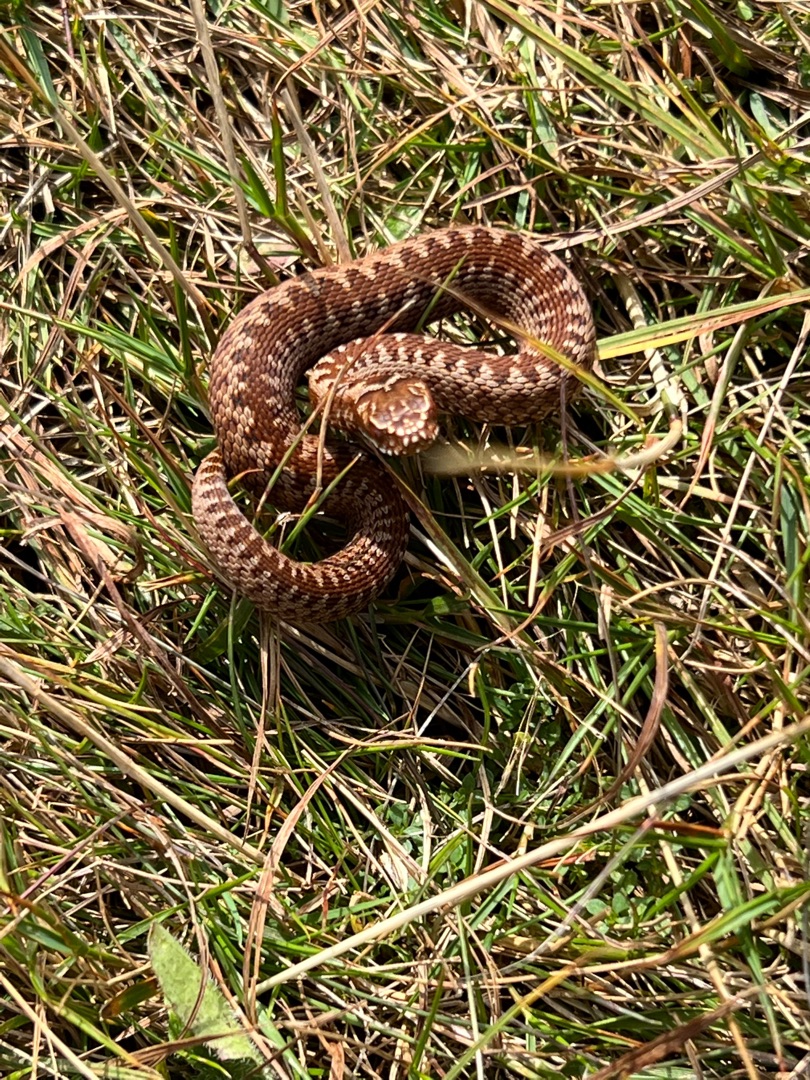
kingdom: Animalia
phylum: Chordata
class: Squamata
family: Viperidae
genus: Vipera
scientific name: Vipera berus
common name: Hugorm
